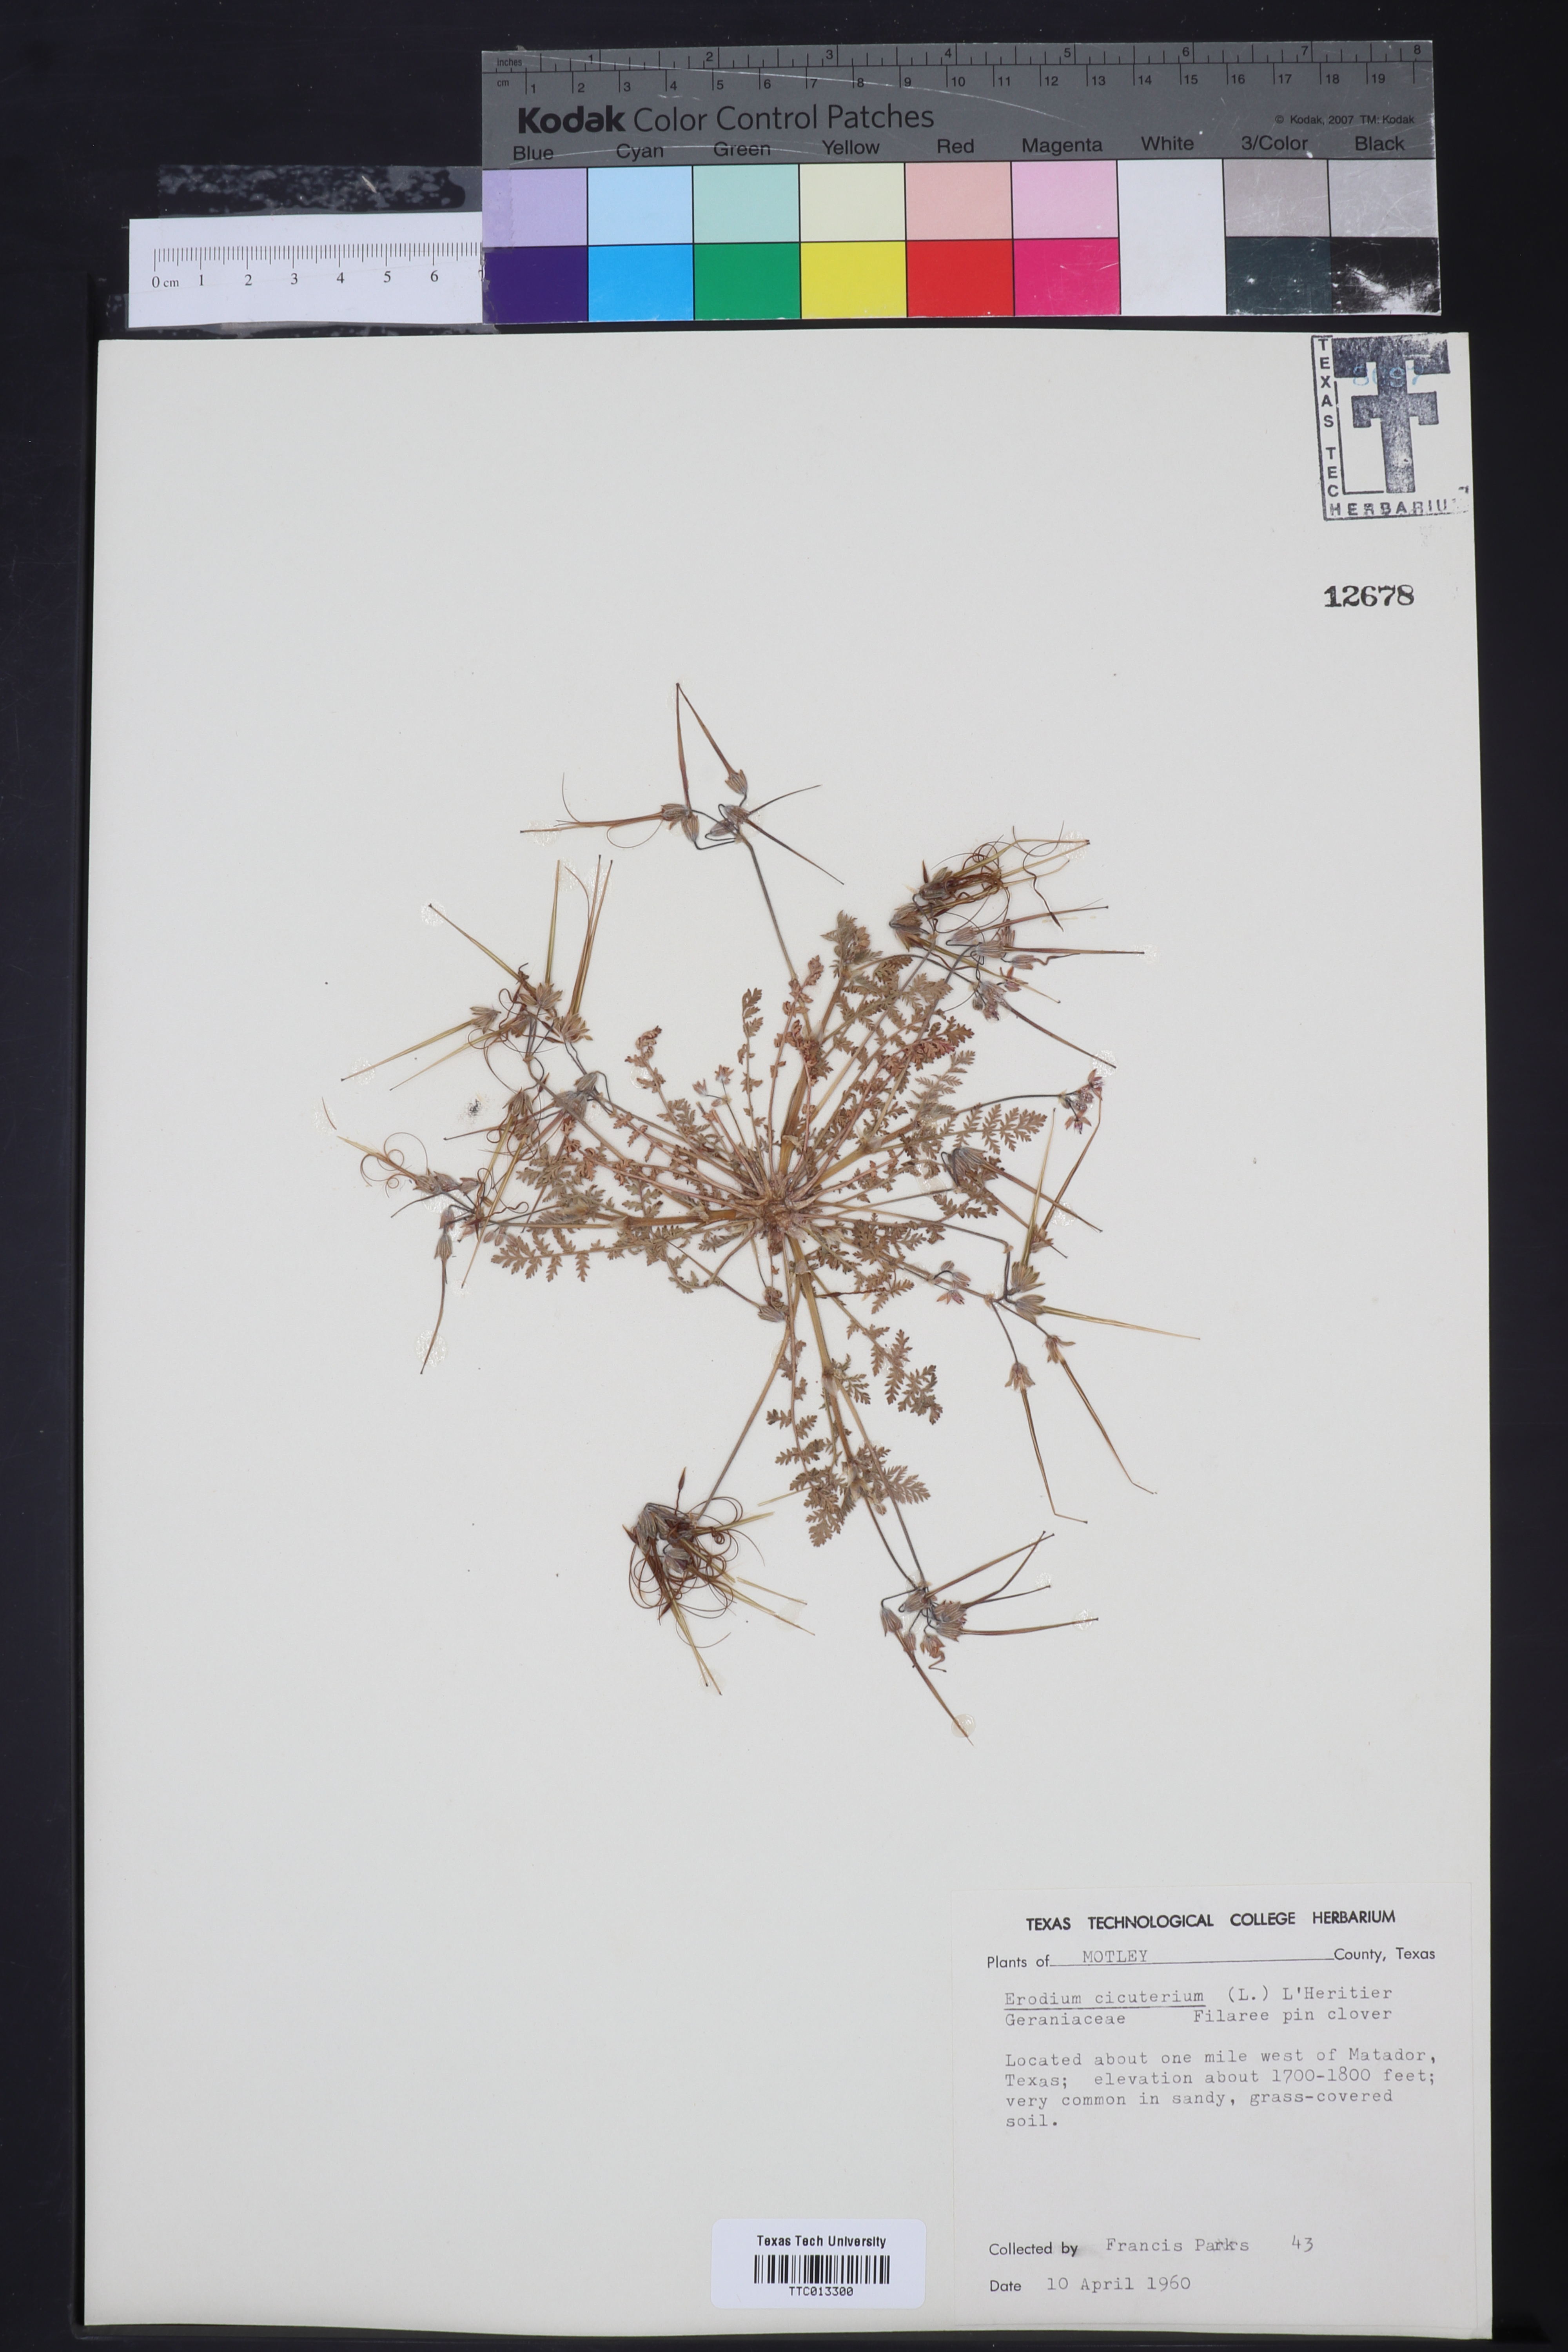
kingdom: Plantae
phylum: Tracheophyta
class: Magnoliopsida
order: Geraniales
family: Geraniaceae
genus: Erodium
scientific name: Erodium cicutarium
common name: Common stork's-bill
